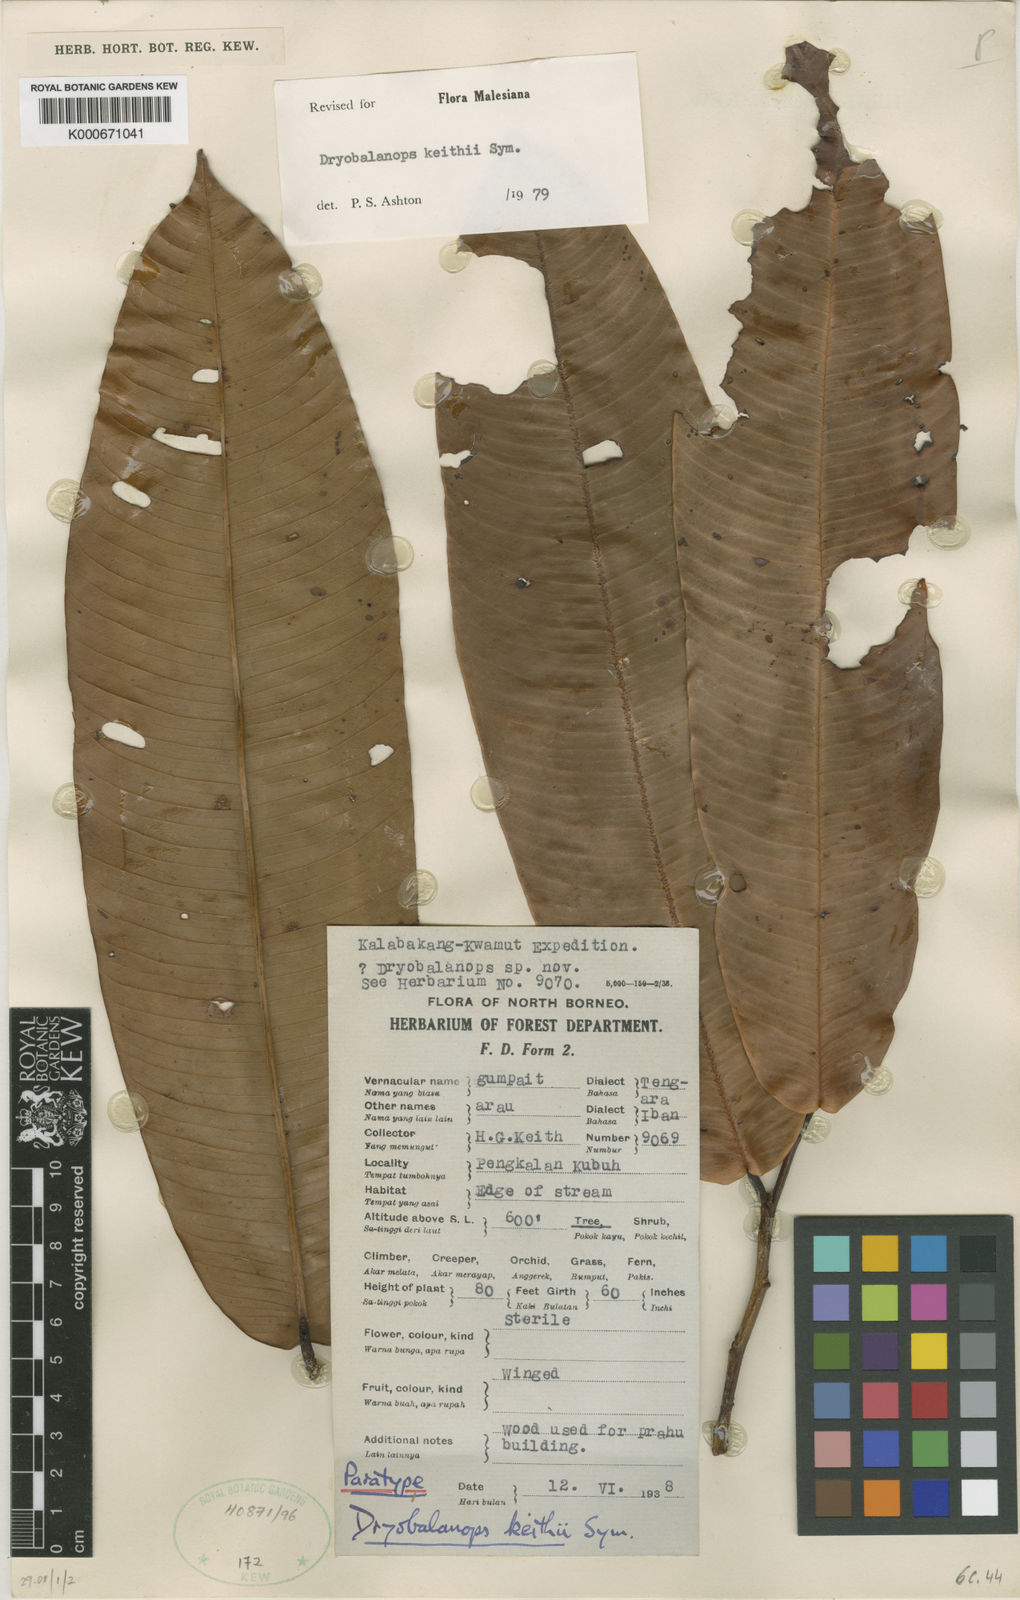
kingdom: Plantae
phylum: Tracheophyta
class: Magnoliopsida
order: Malvales
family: Dipterocarpaceae
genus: Dryobalanops
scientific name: Dryobalanops keithii
